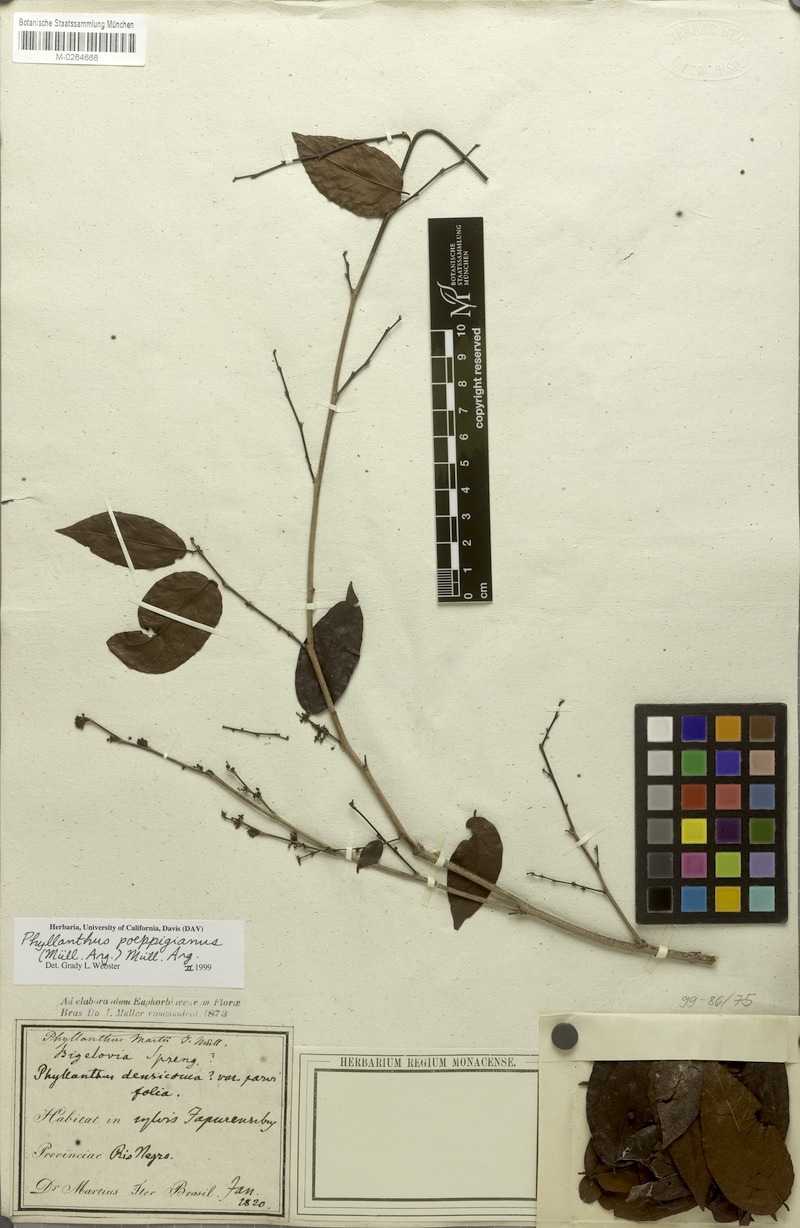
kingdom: Plantae
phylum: Tracheophyta
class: Magnoliopsida
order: Malpighiales
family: Phyllanthaceae
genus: Phyllanthus
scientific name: Phyllanthus poeppigianus
